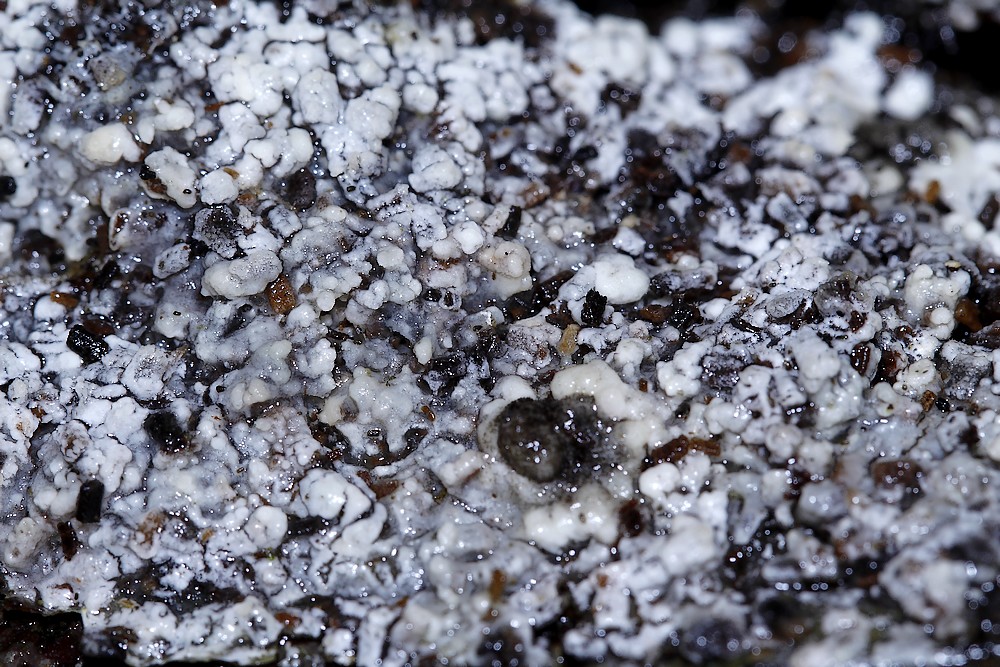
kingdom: Fungi
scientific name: Fungi
